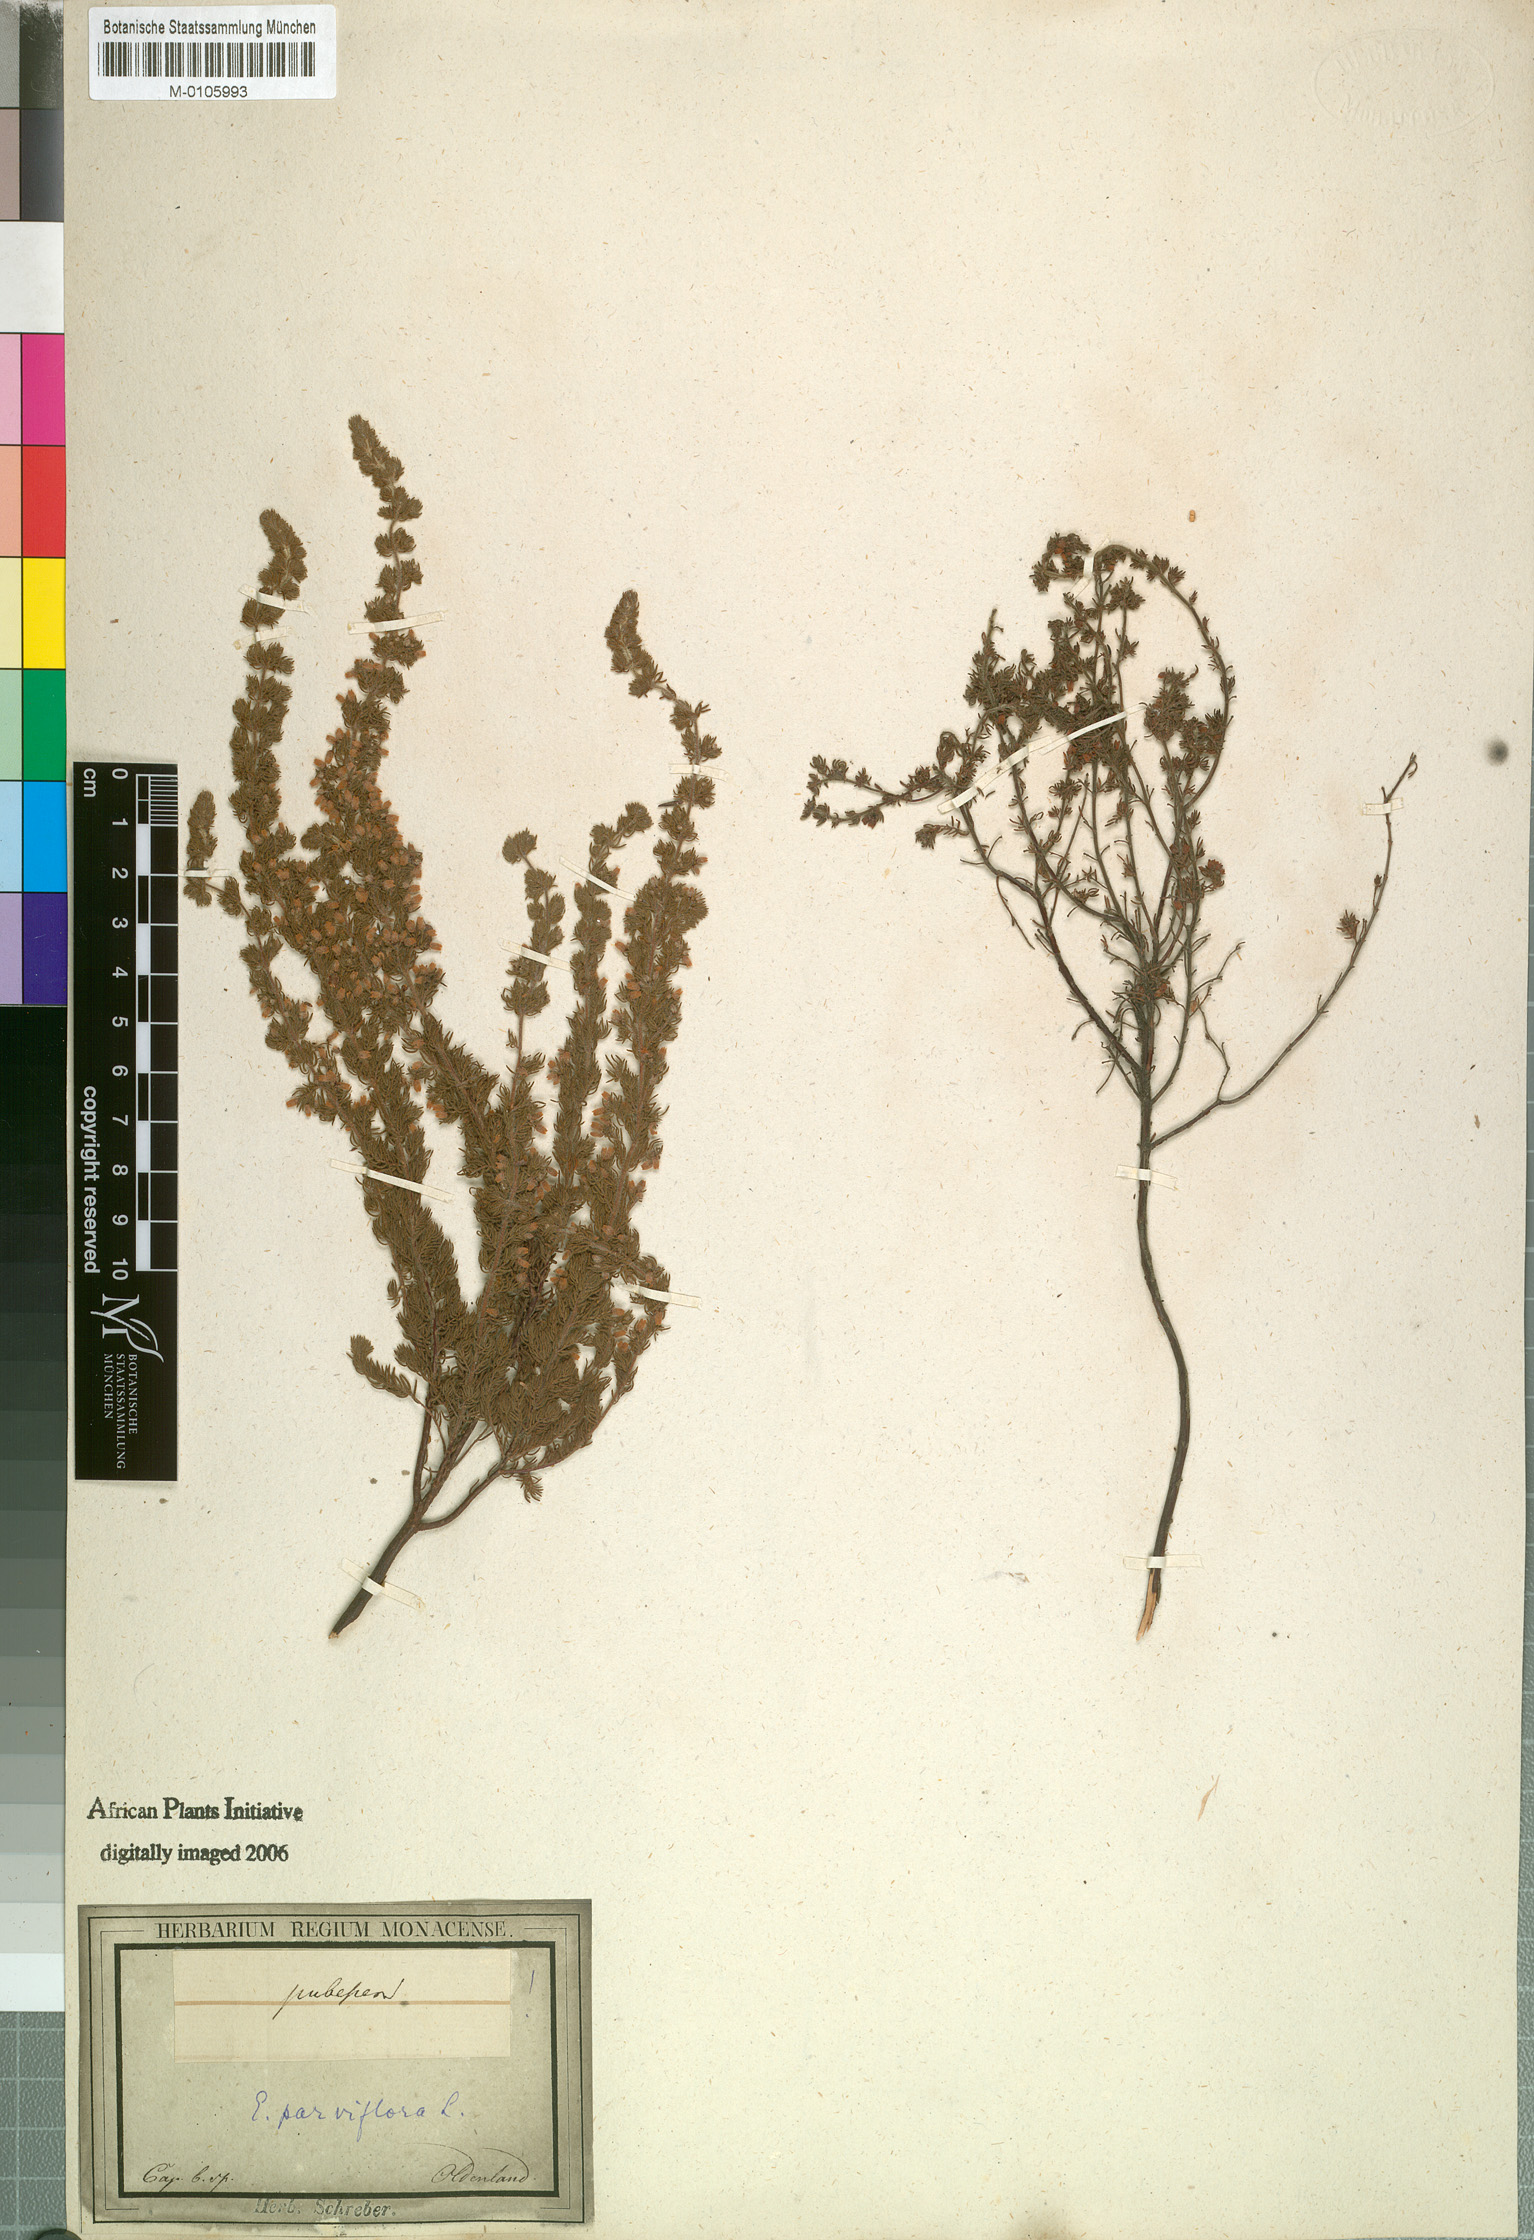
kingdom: Plantae
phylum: Tracheophyta
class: Magnoliopsida
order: Ericales
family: Ericaceae
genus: Erica
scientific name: Erica parviflora
